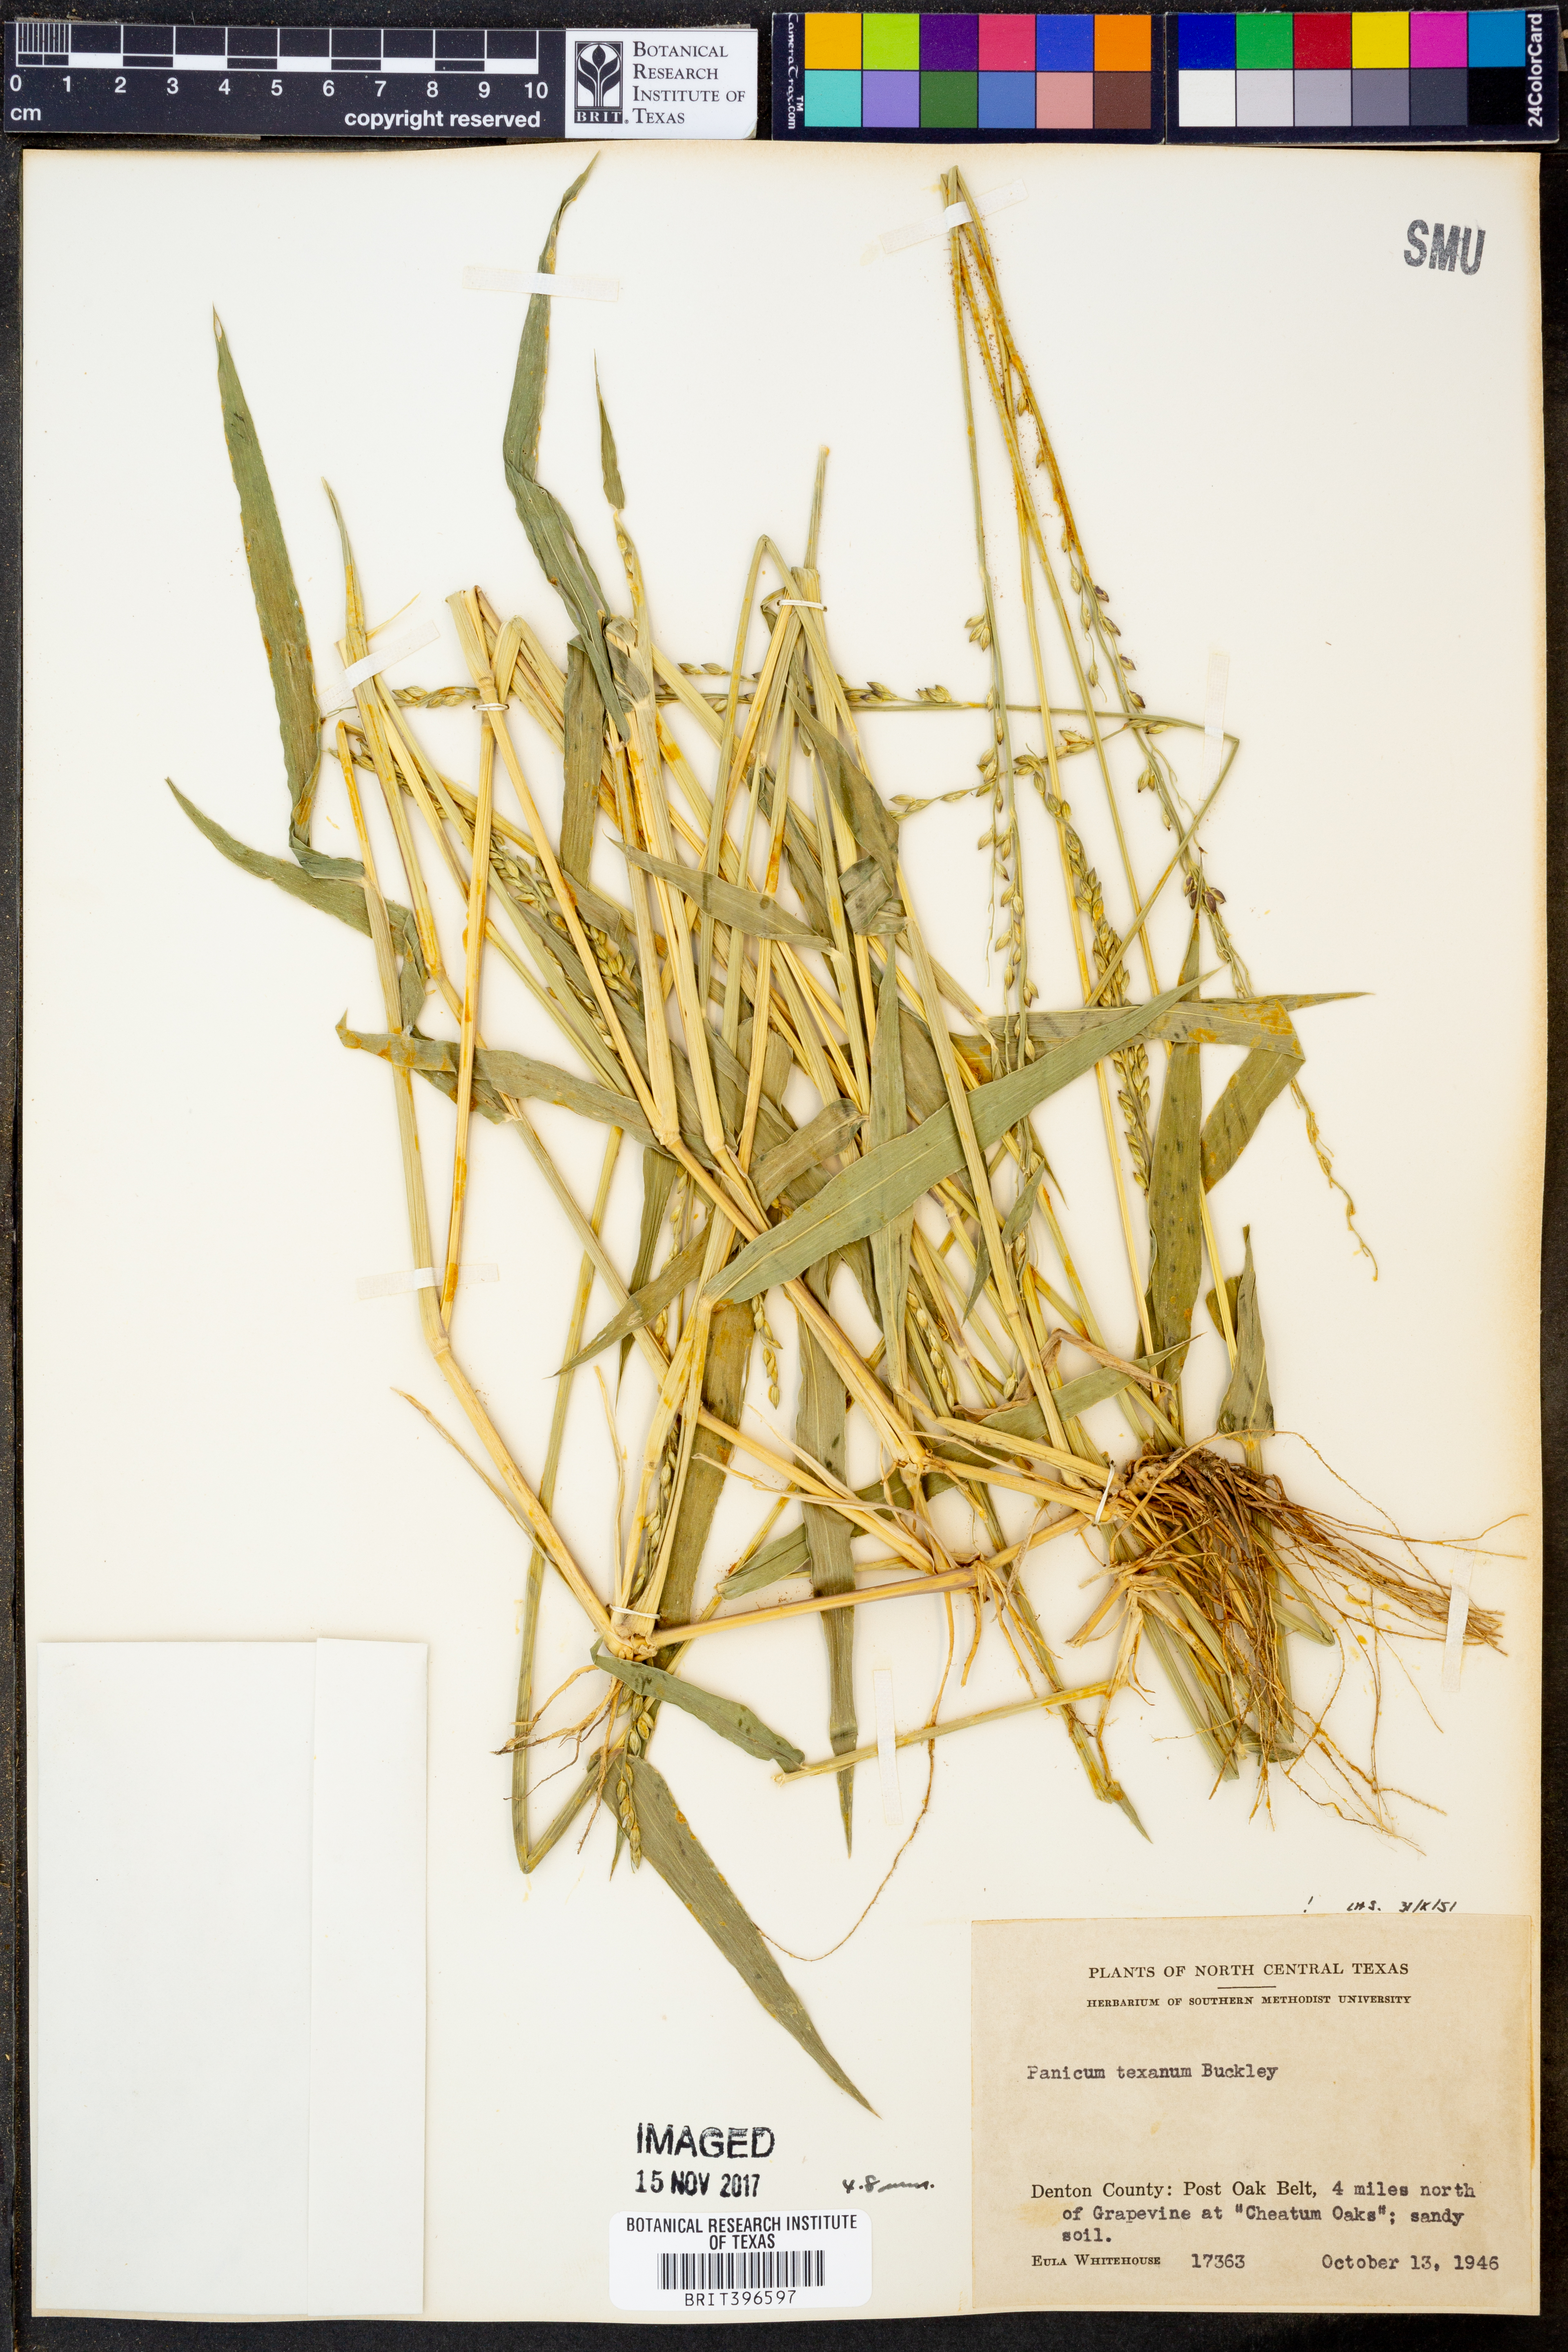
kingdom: Plantae
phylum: Tracheophyta
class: Liliopsida
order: Poales
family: Poaceae
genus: Urochloa
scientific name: Urochloa texana
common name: Texas millet
